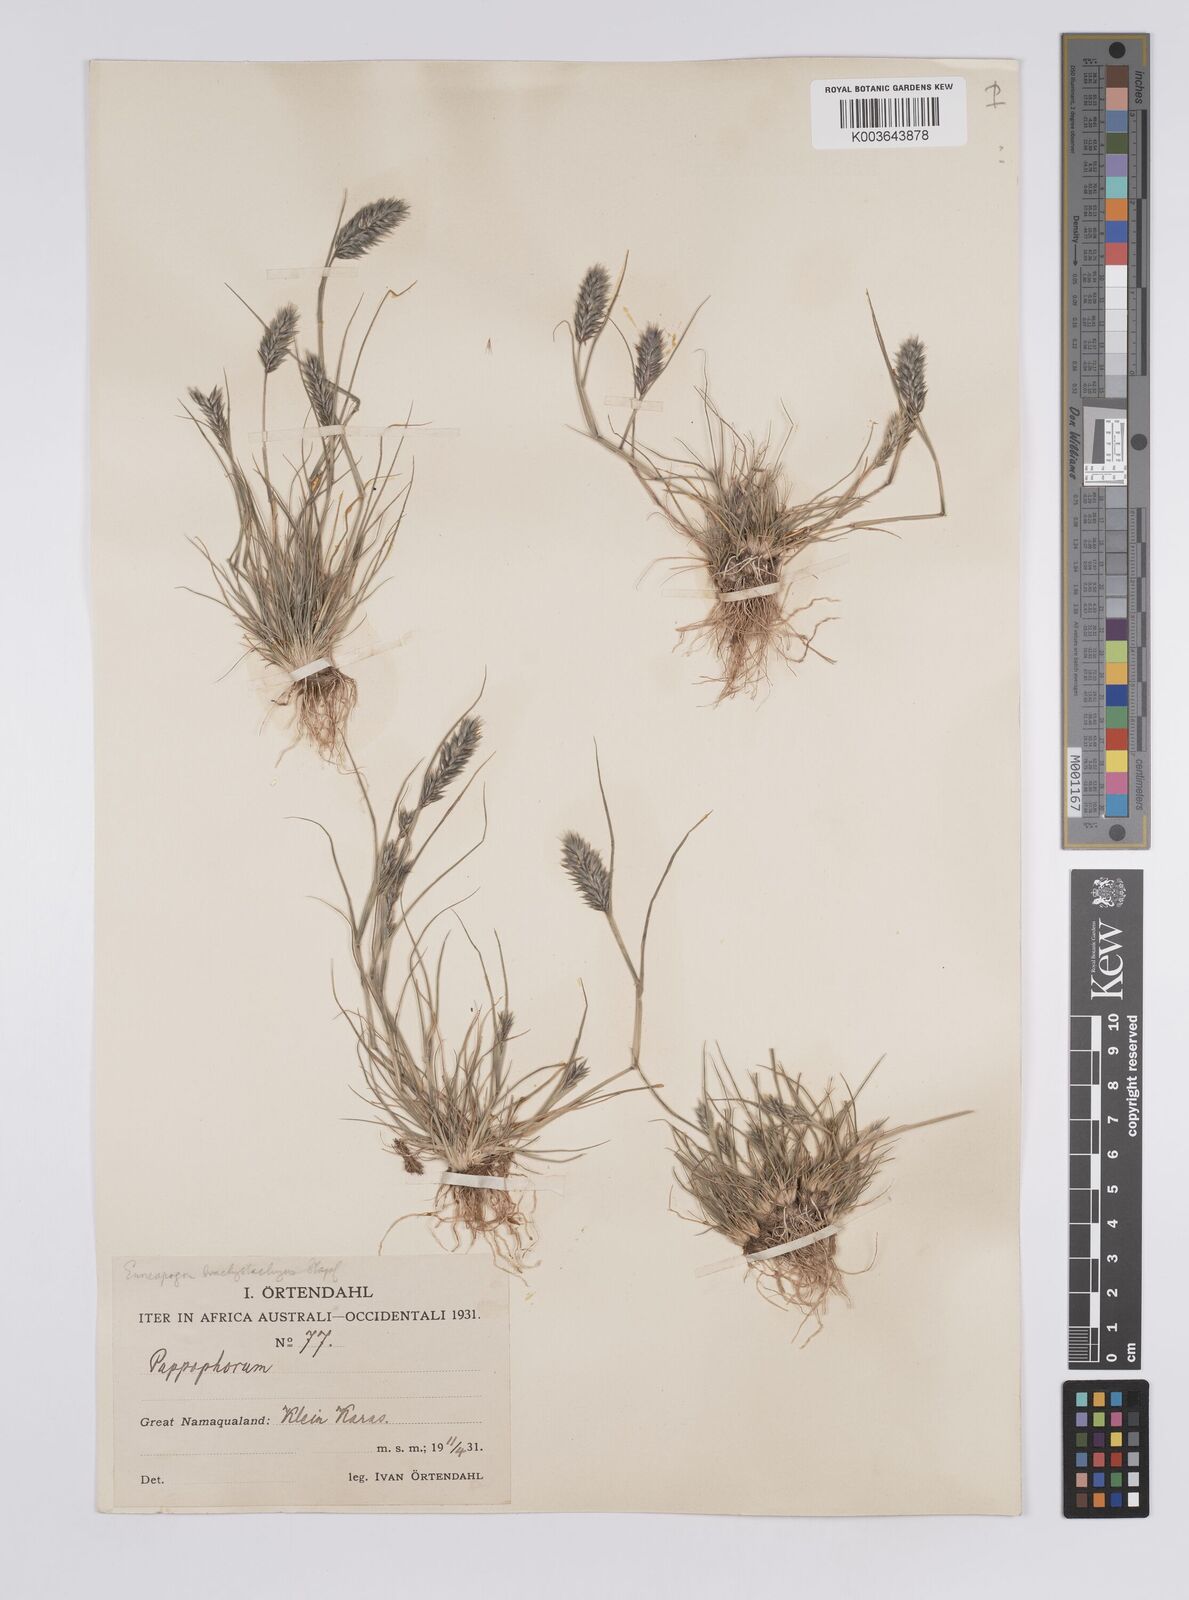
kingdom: Plantae
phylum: Tracheophyta
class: Liliopsida
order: Poales
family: Poaceae
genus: Enneapogon
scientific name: Enneapogon desvauxii
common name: Feather pappus grass
